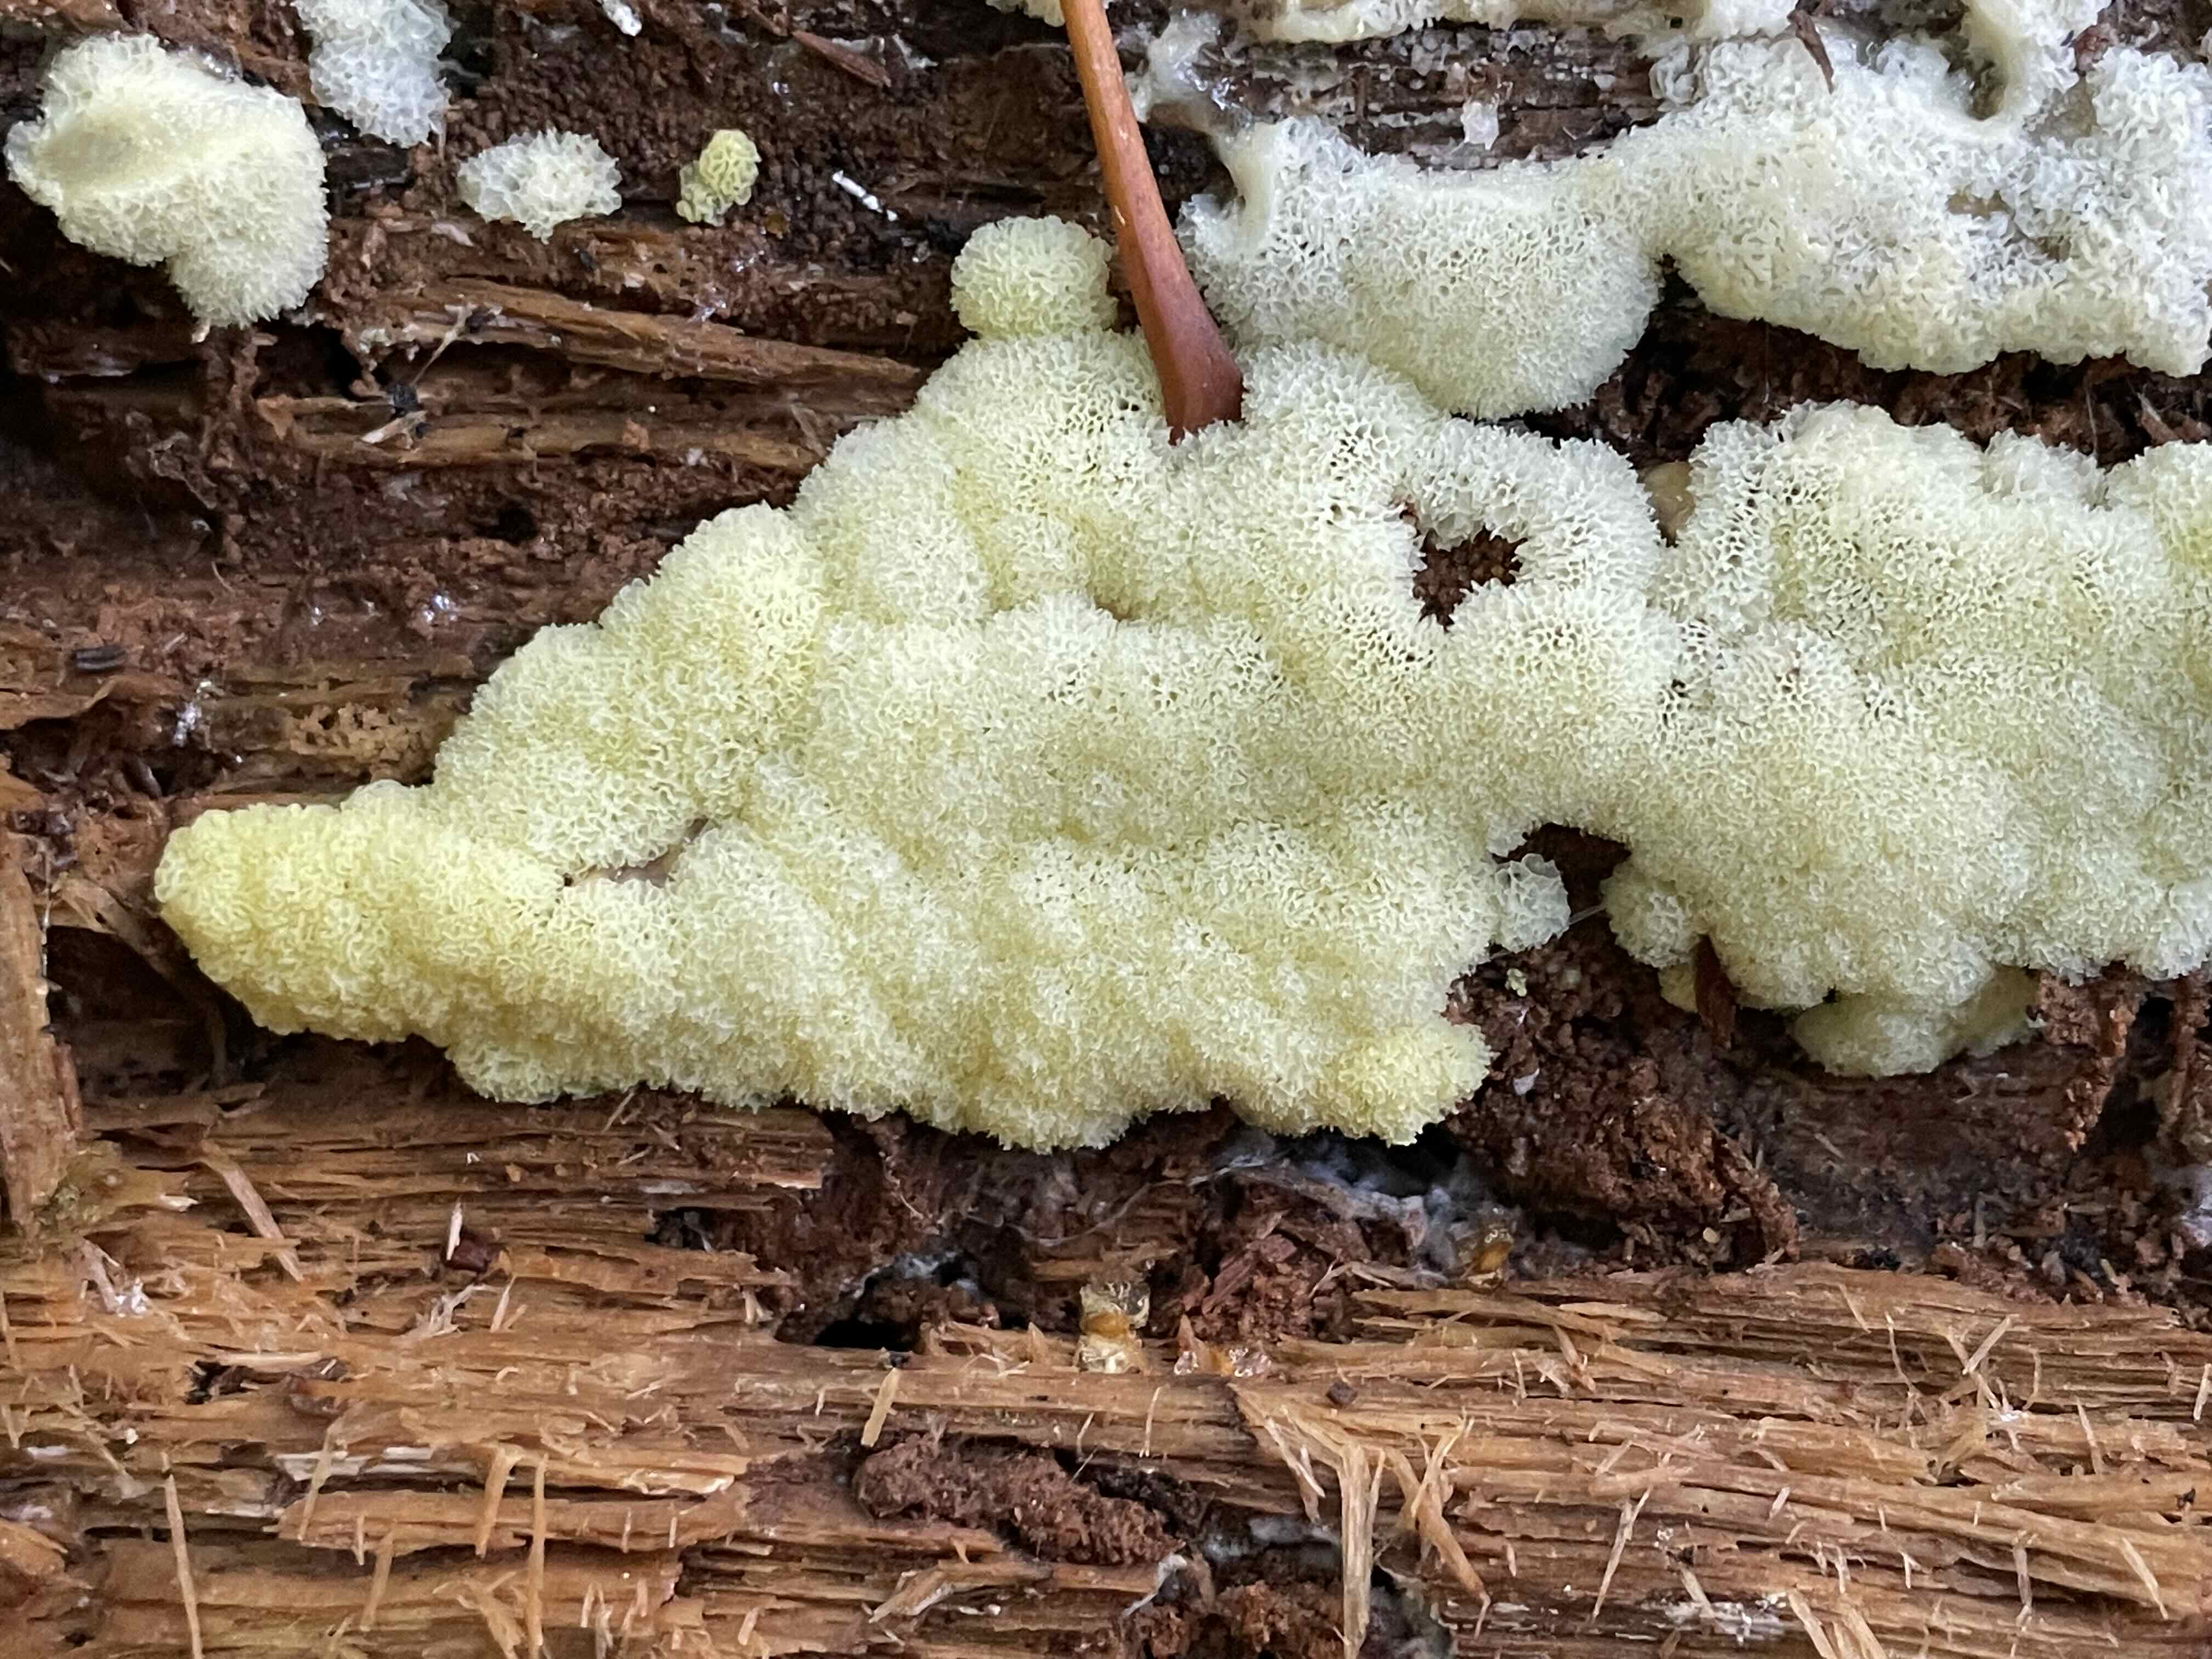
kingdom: Protozoa
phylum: Mycetozoa
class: Protosteliomycetes
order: Ceratiomyxales
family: Ceratiomyxaceae
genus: Ceratiomyxa
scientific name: Ceratiomyxa fruticulosa
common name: Honeycomb coral slime mold
